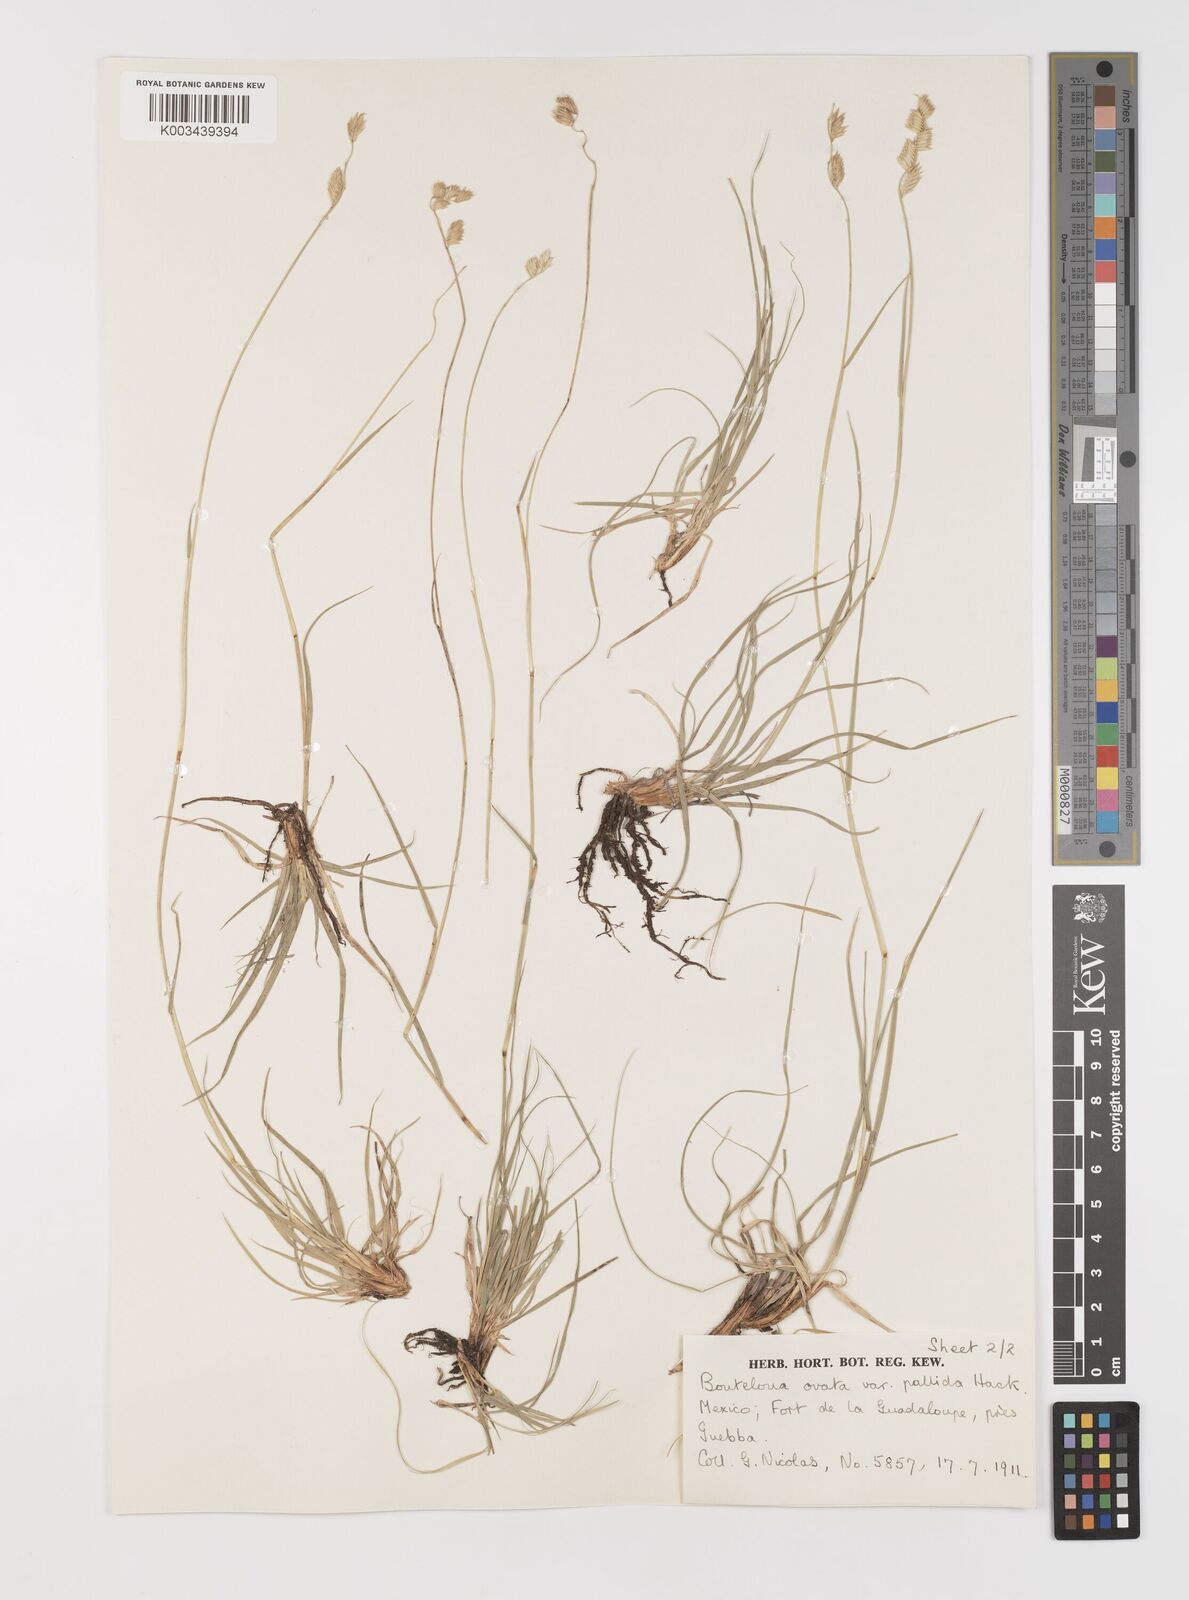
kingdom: Plantae
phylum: Tracheophyta
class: Liliopsida
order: Poales
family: Poaceae
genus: Bouteloua
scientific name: Bouteloua chondrosioides
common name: Sprucetop grama
